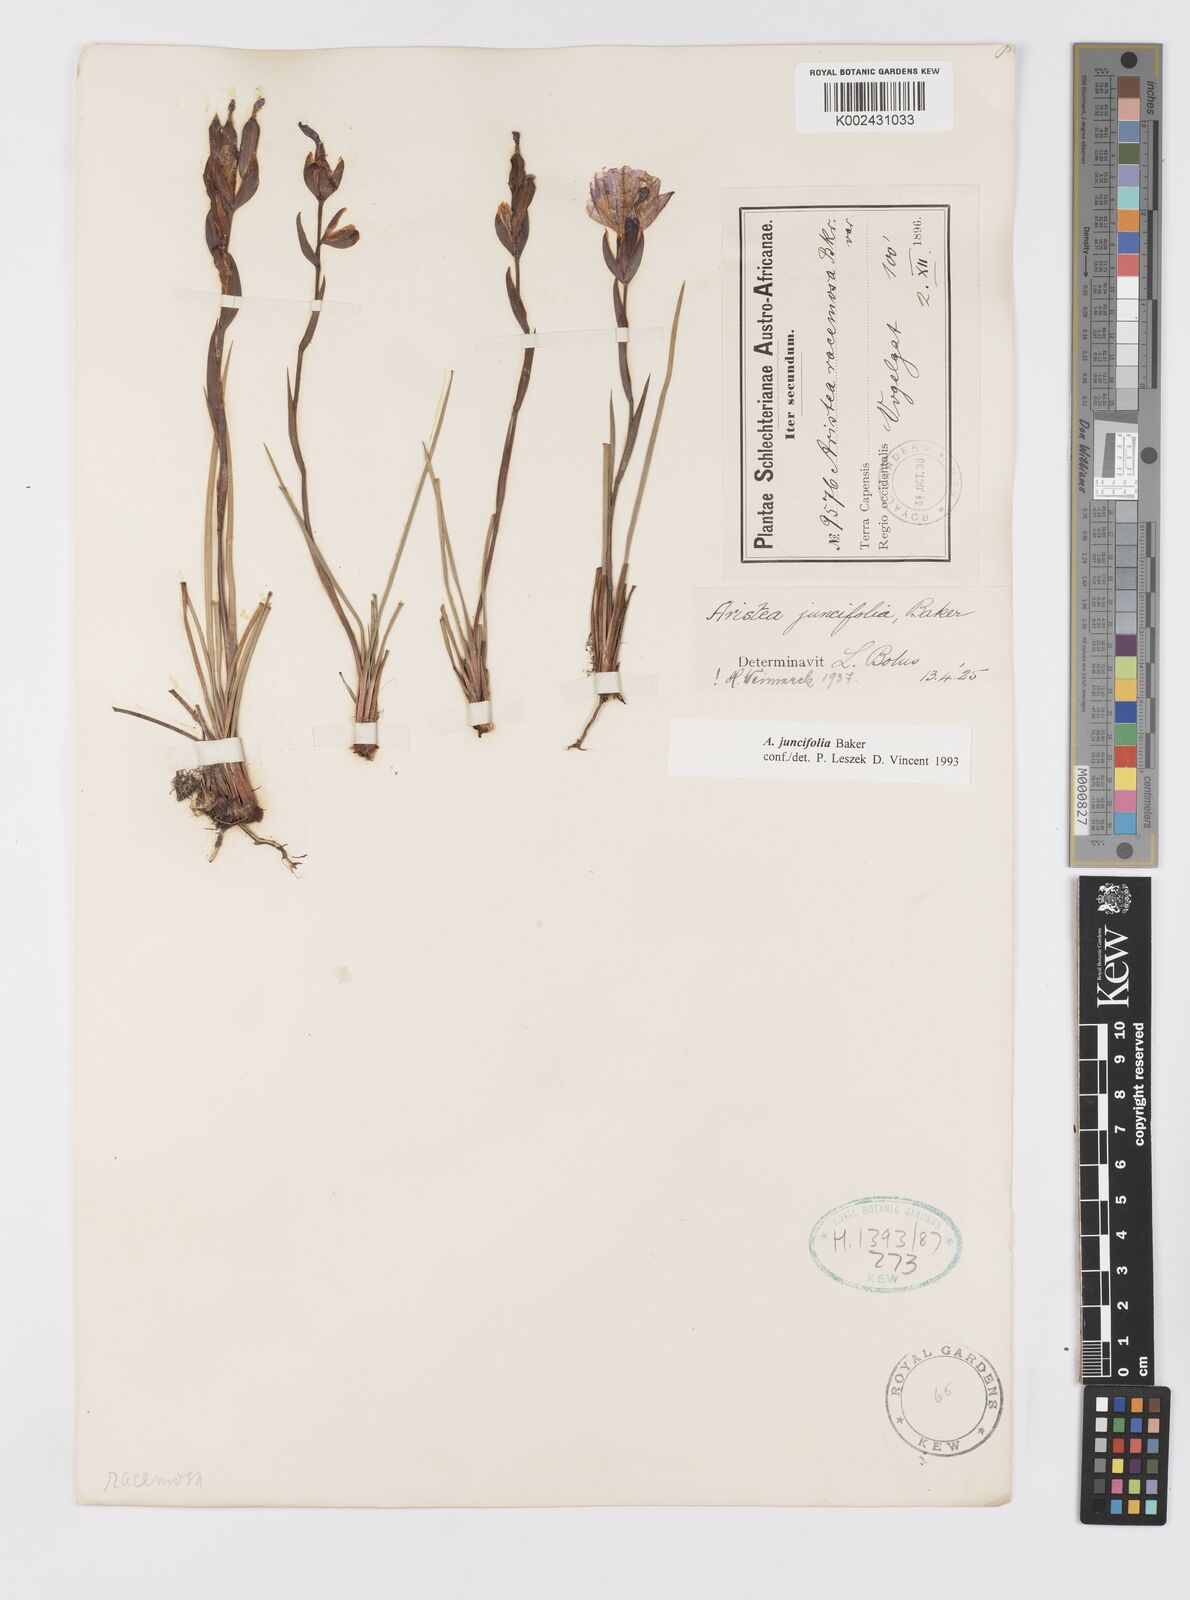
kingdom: Plantae
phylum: Tracheophyta
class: Liliopsida
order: Asparagales
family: Iridaceae
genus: Aristea
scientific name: Aristea juncifolia
